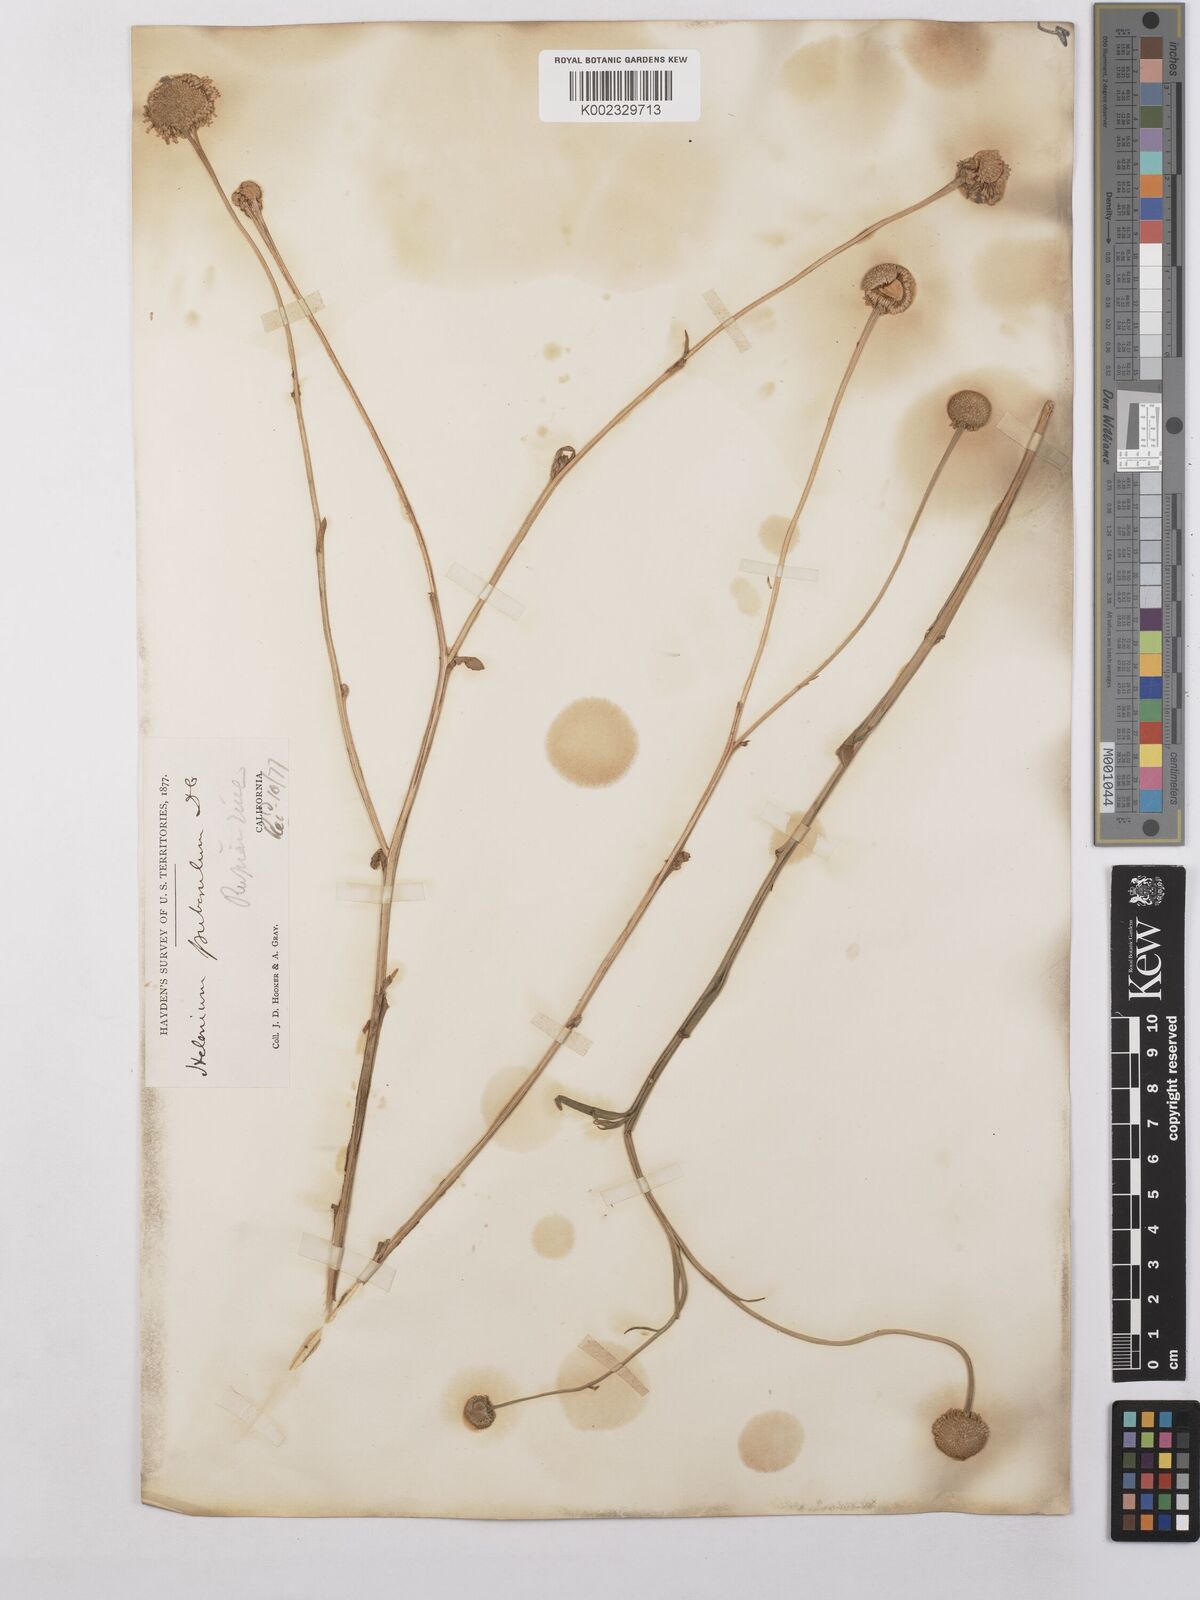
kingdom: Plantae
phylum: Tracheophyta
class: Magnoliopsida
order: Asterales
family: Asteraceae
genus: Helenium
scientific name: Helenium puberulum
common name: Sneezewort
